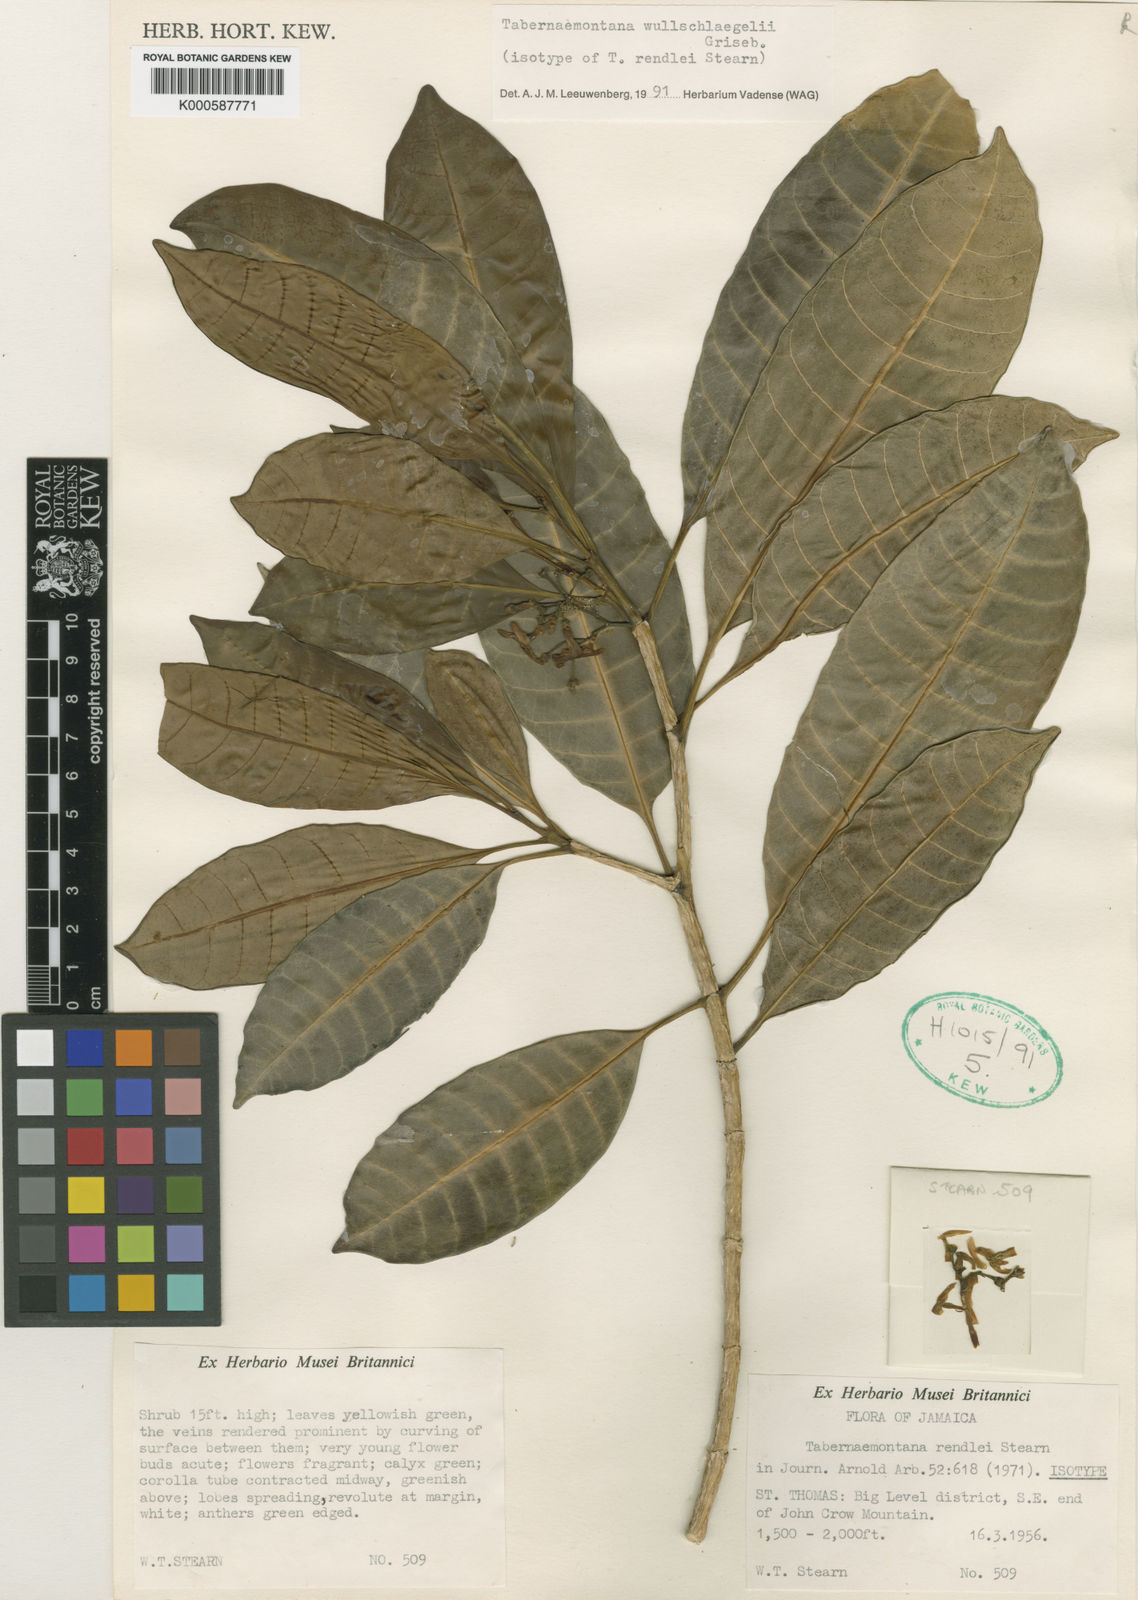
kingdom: Plantae
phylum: Tracheophyta
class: Magnoliopsida
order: Gentianales
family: Apocynaceae
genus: Tabernaemontana
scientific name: Tabernaemontana wullschlaegelii
